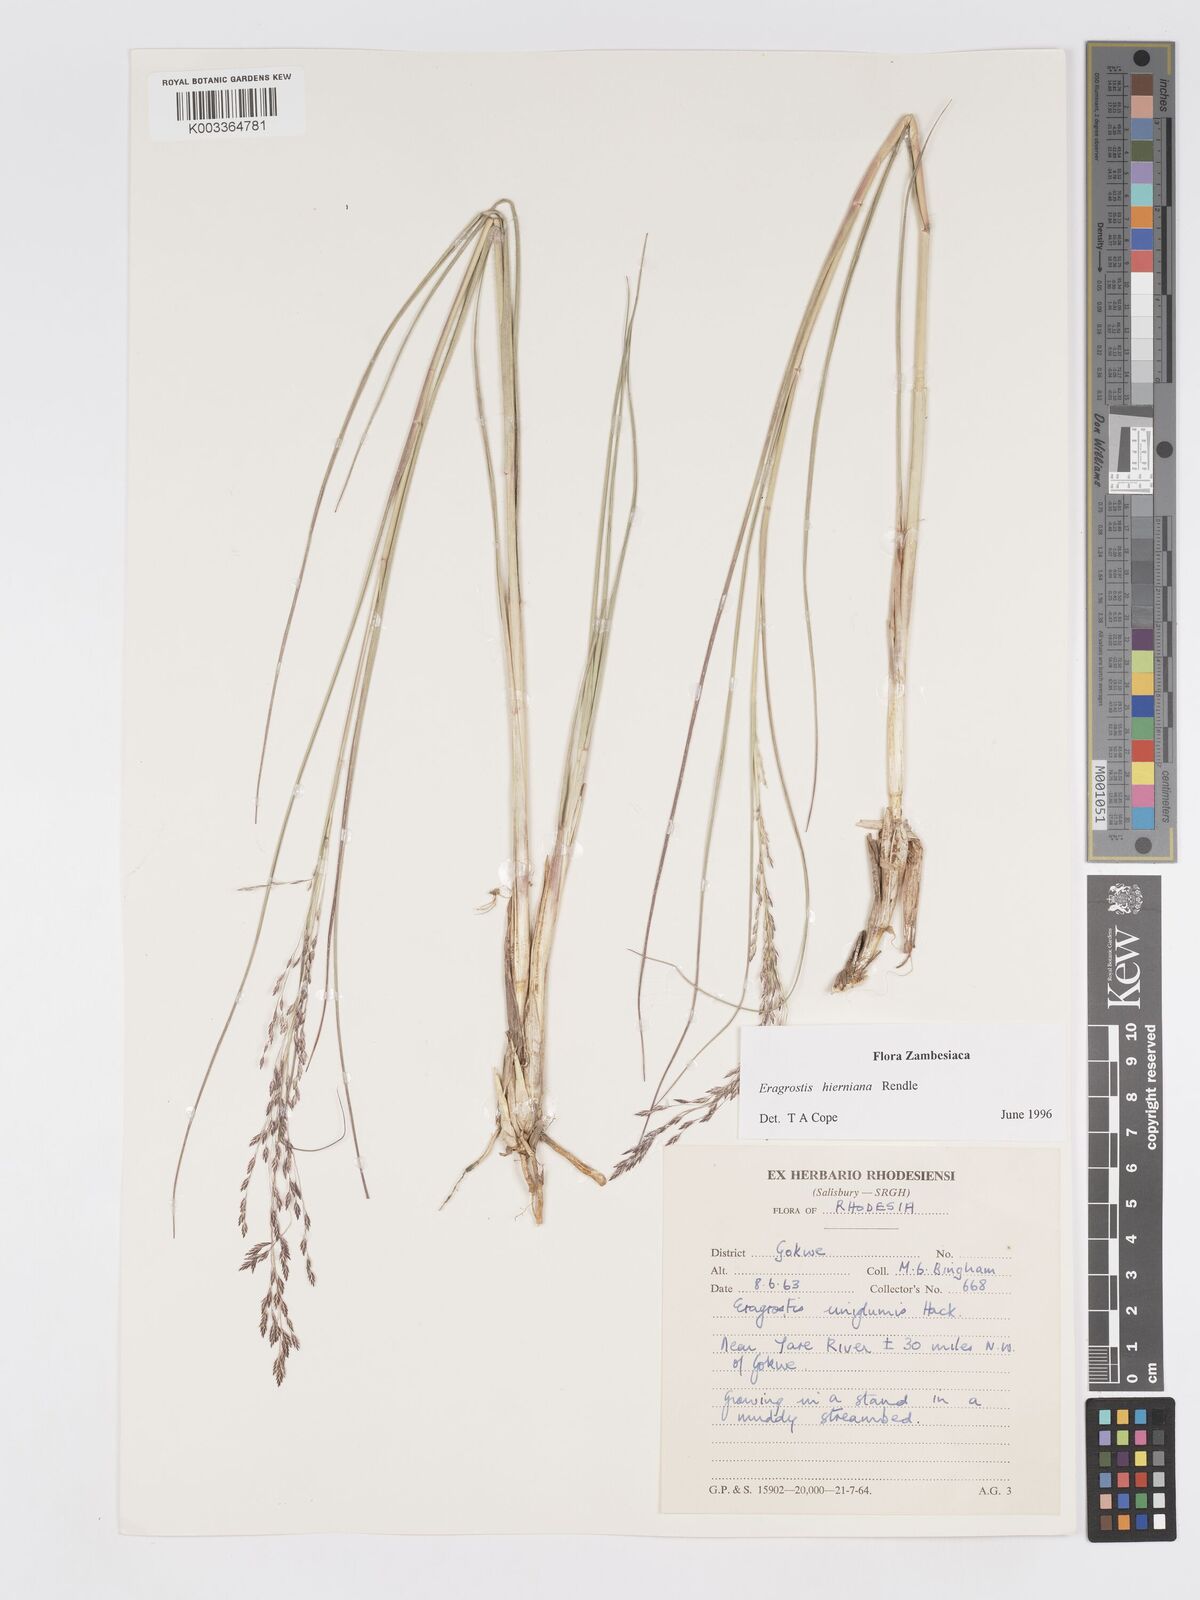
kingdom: Plantae
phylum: Tracheophyta
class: Liliopsida
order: Poales
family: Poaceae
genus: Eragrostis
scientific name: Eragrostis hierniana
